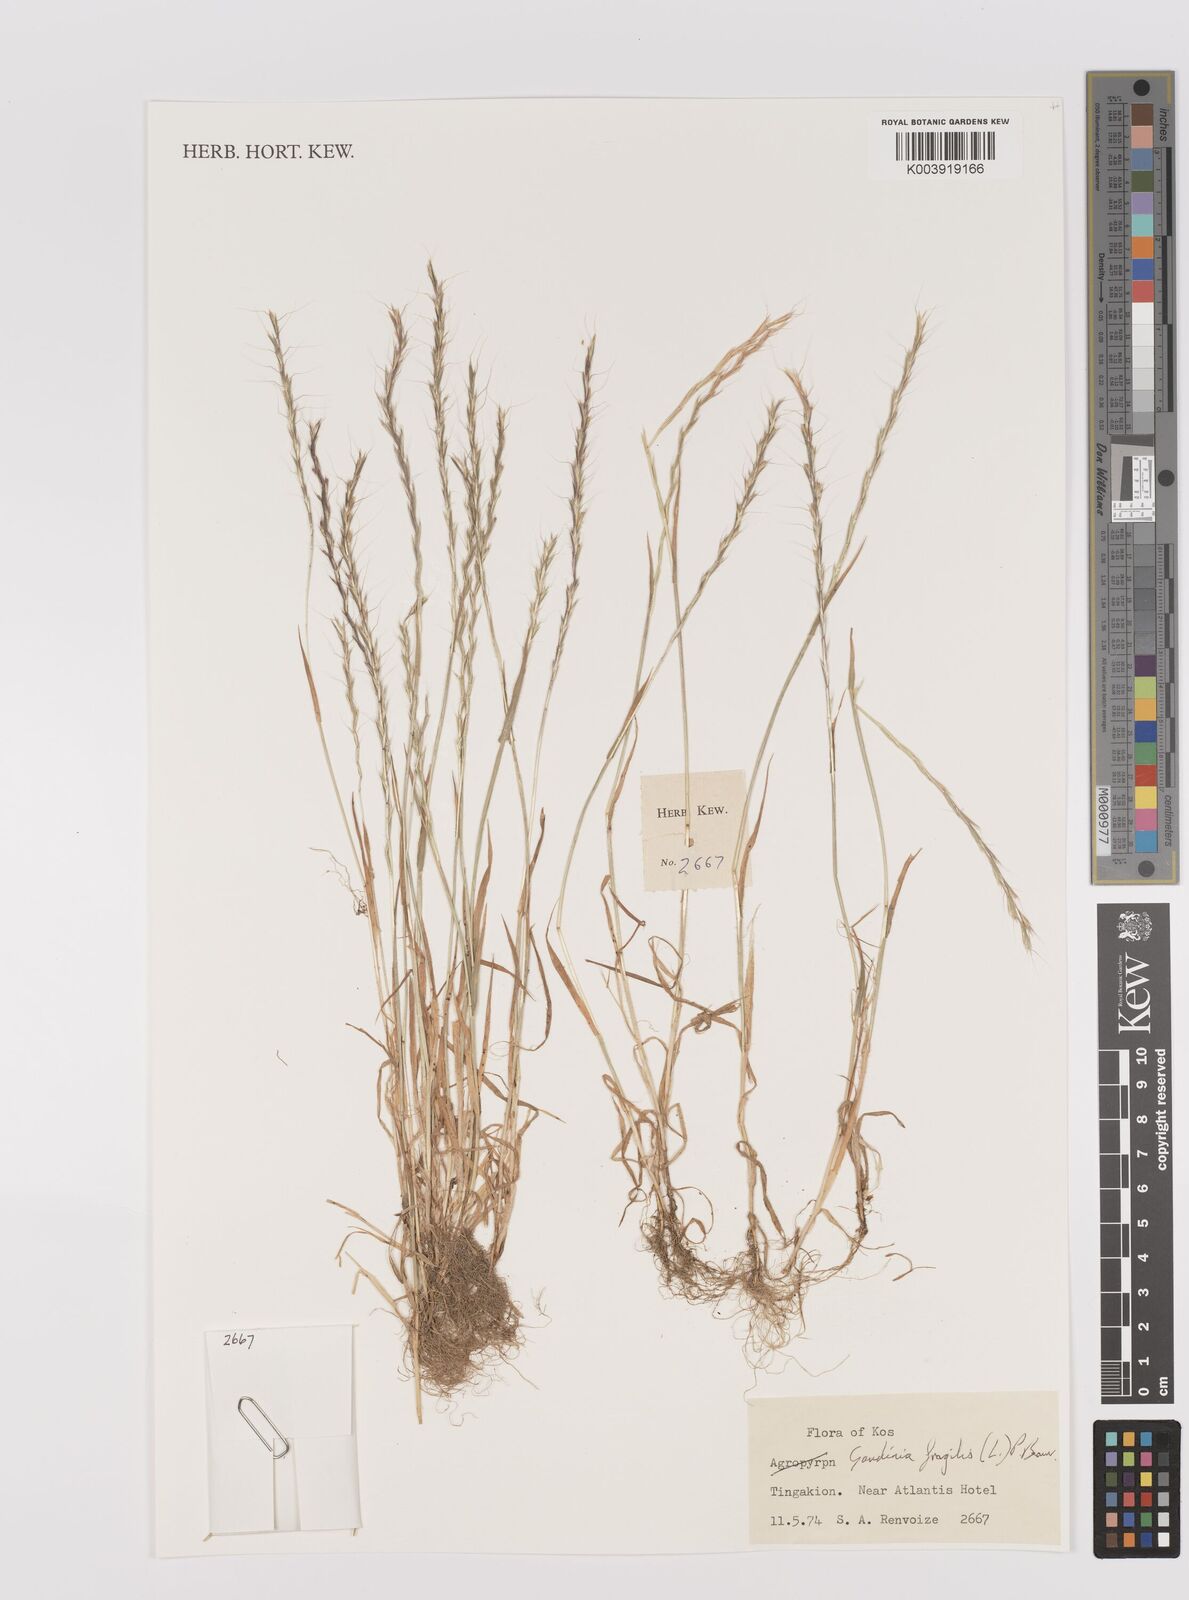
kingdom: Plantae
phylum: Tracheophyta
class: Liliopsida
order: Poales
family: Poaceae
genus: Gaudinia
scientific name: Gaudinia fragilis
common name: French oat-grass
